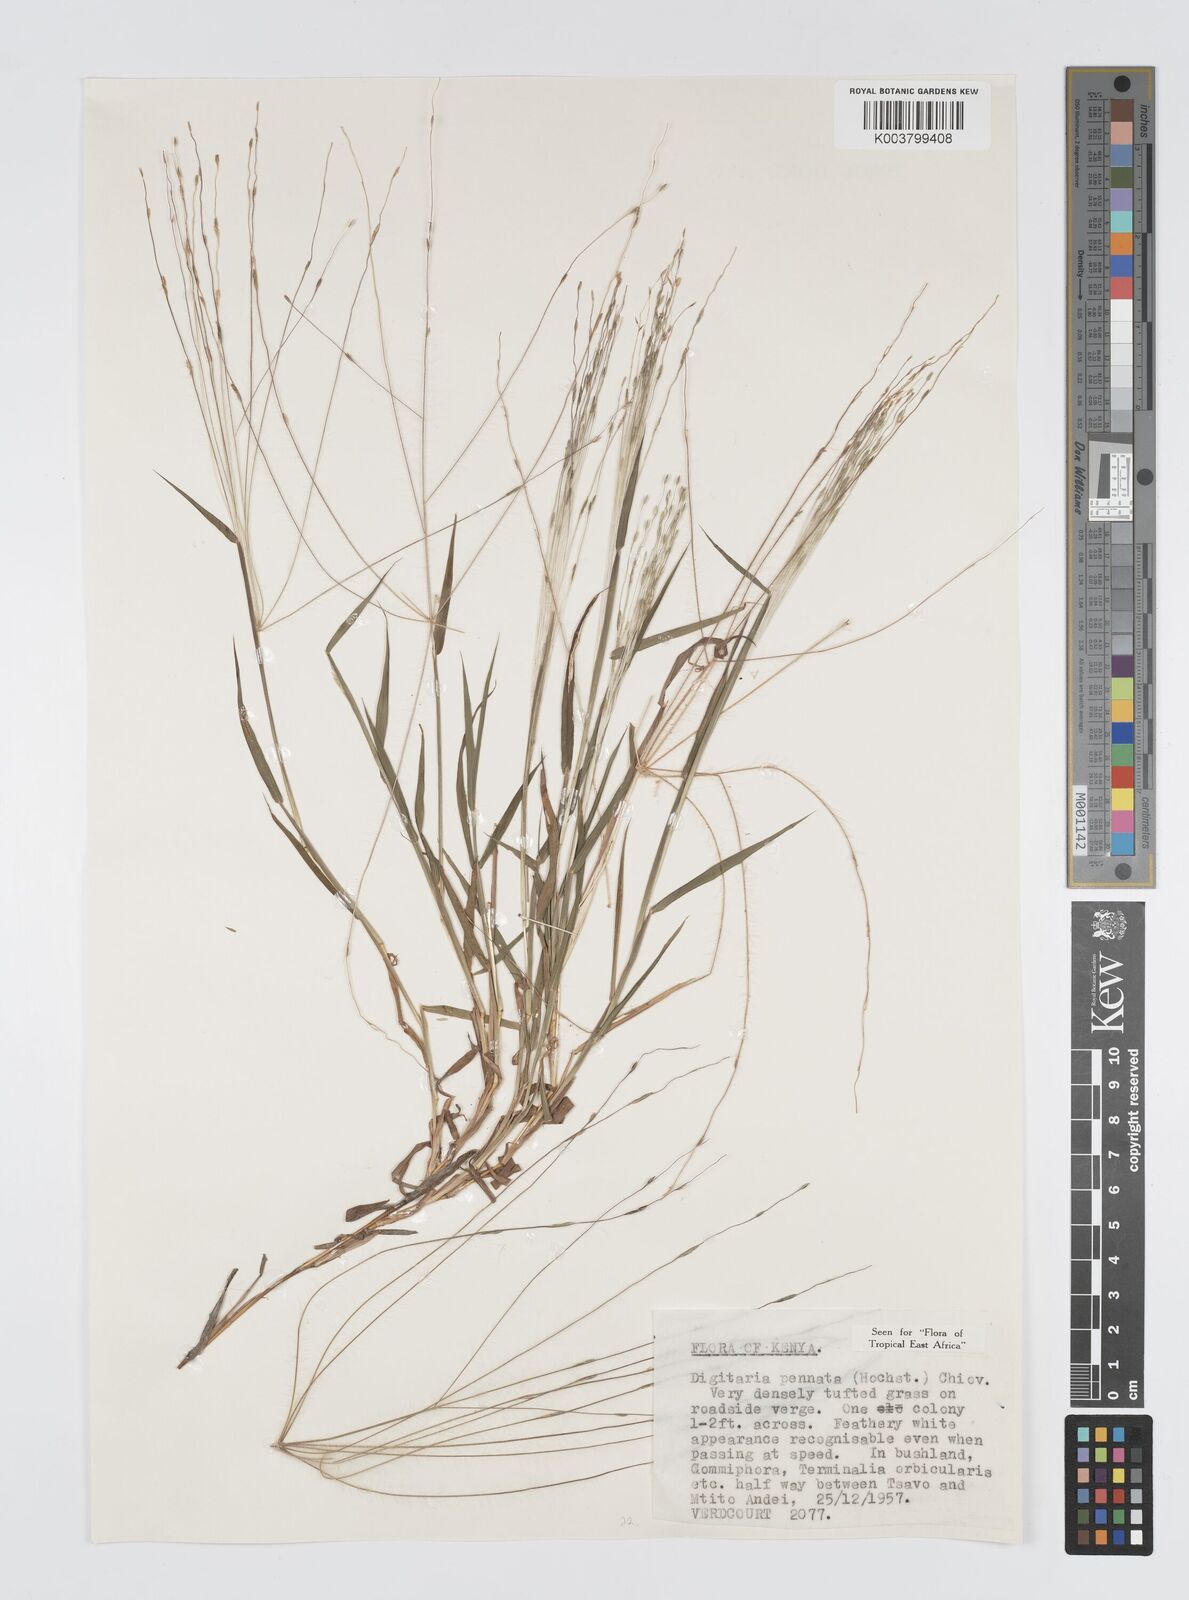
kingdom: Plantae
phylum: Tracheophyta
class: Liliopsida
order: Poales
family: Poaceae
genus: Digitaria
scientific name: Digitaria pennata
